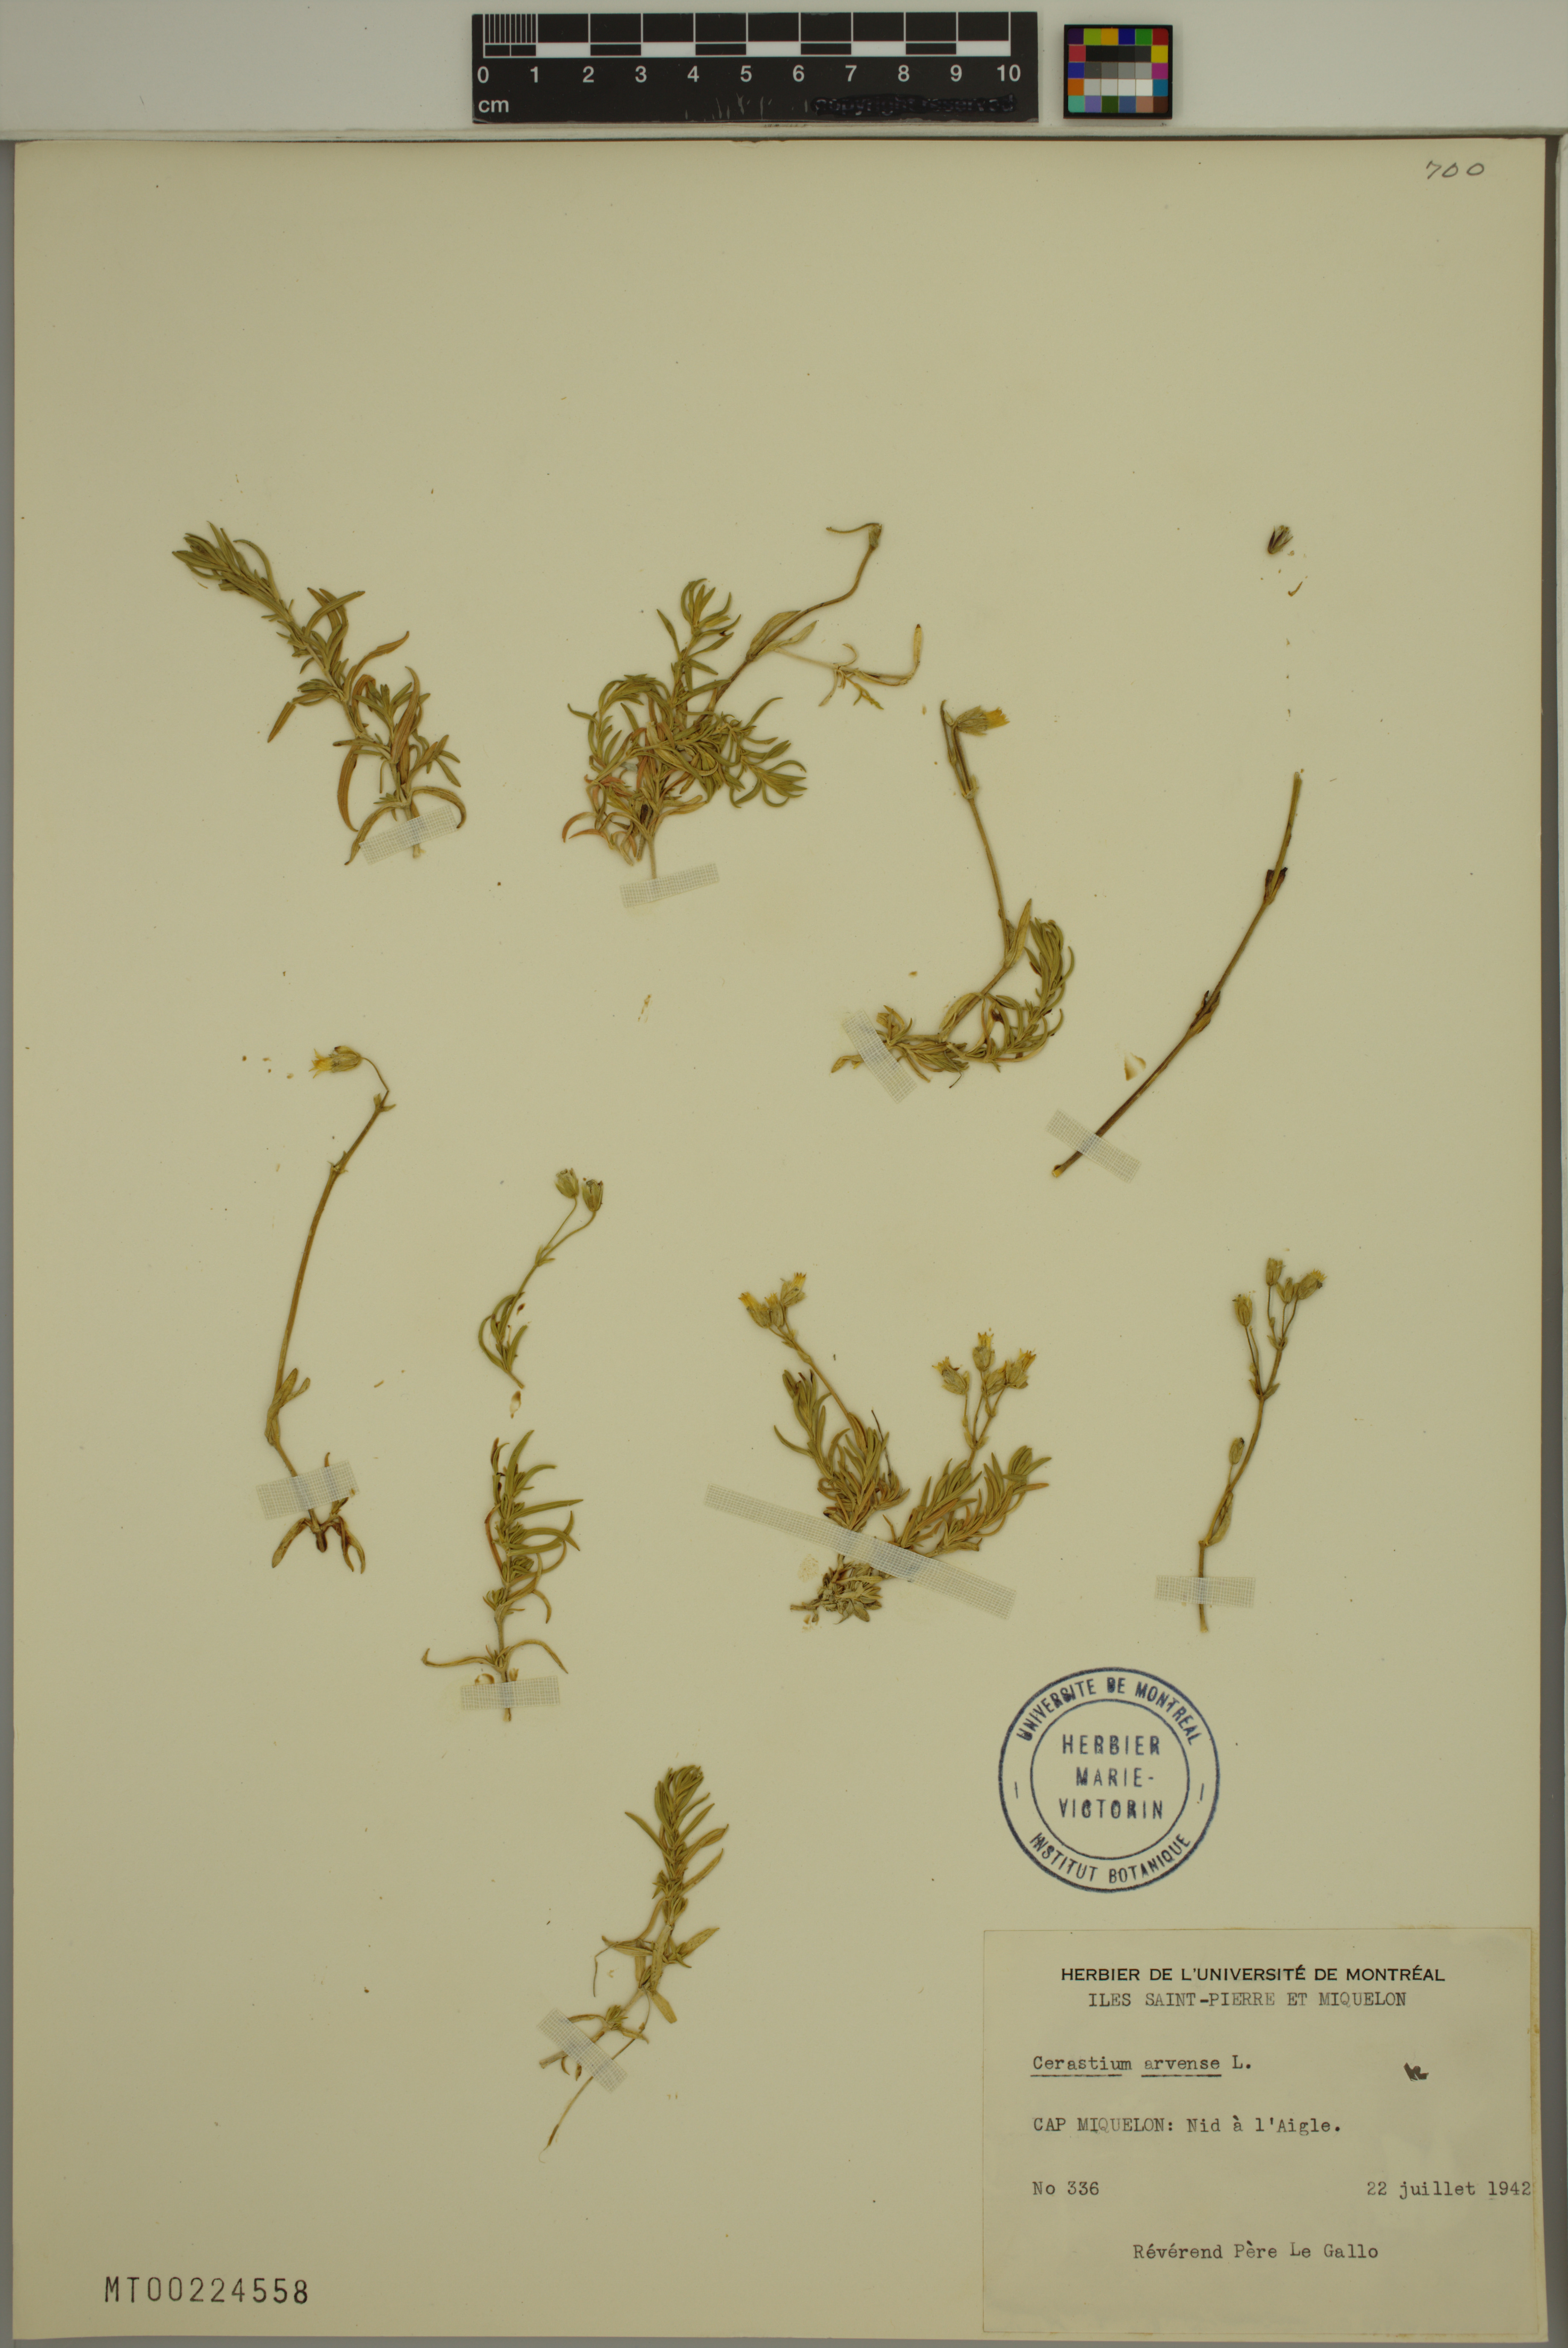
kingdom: Plantae
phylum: Tracheophyta
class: Magnoliopsida
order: Caryophyllales
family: Caryophyllaceae
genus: Cerastium
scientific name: Cerastium arvense
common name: Field mouse-ear
